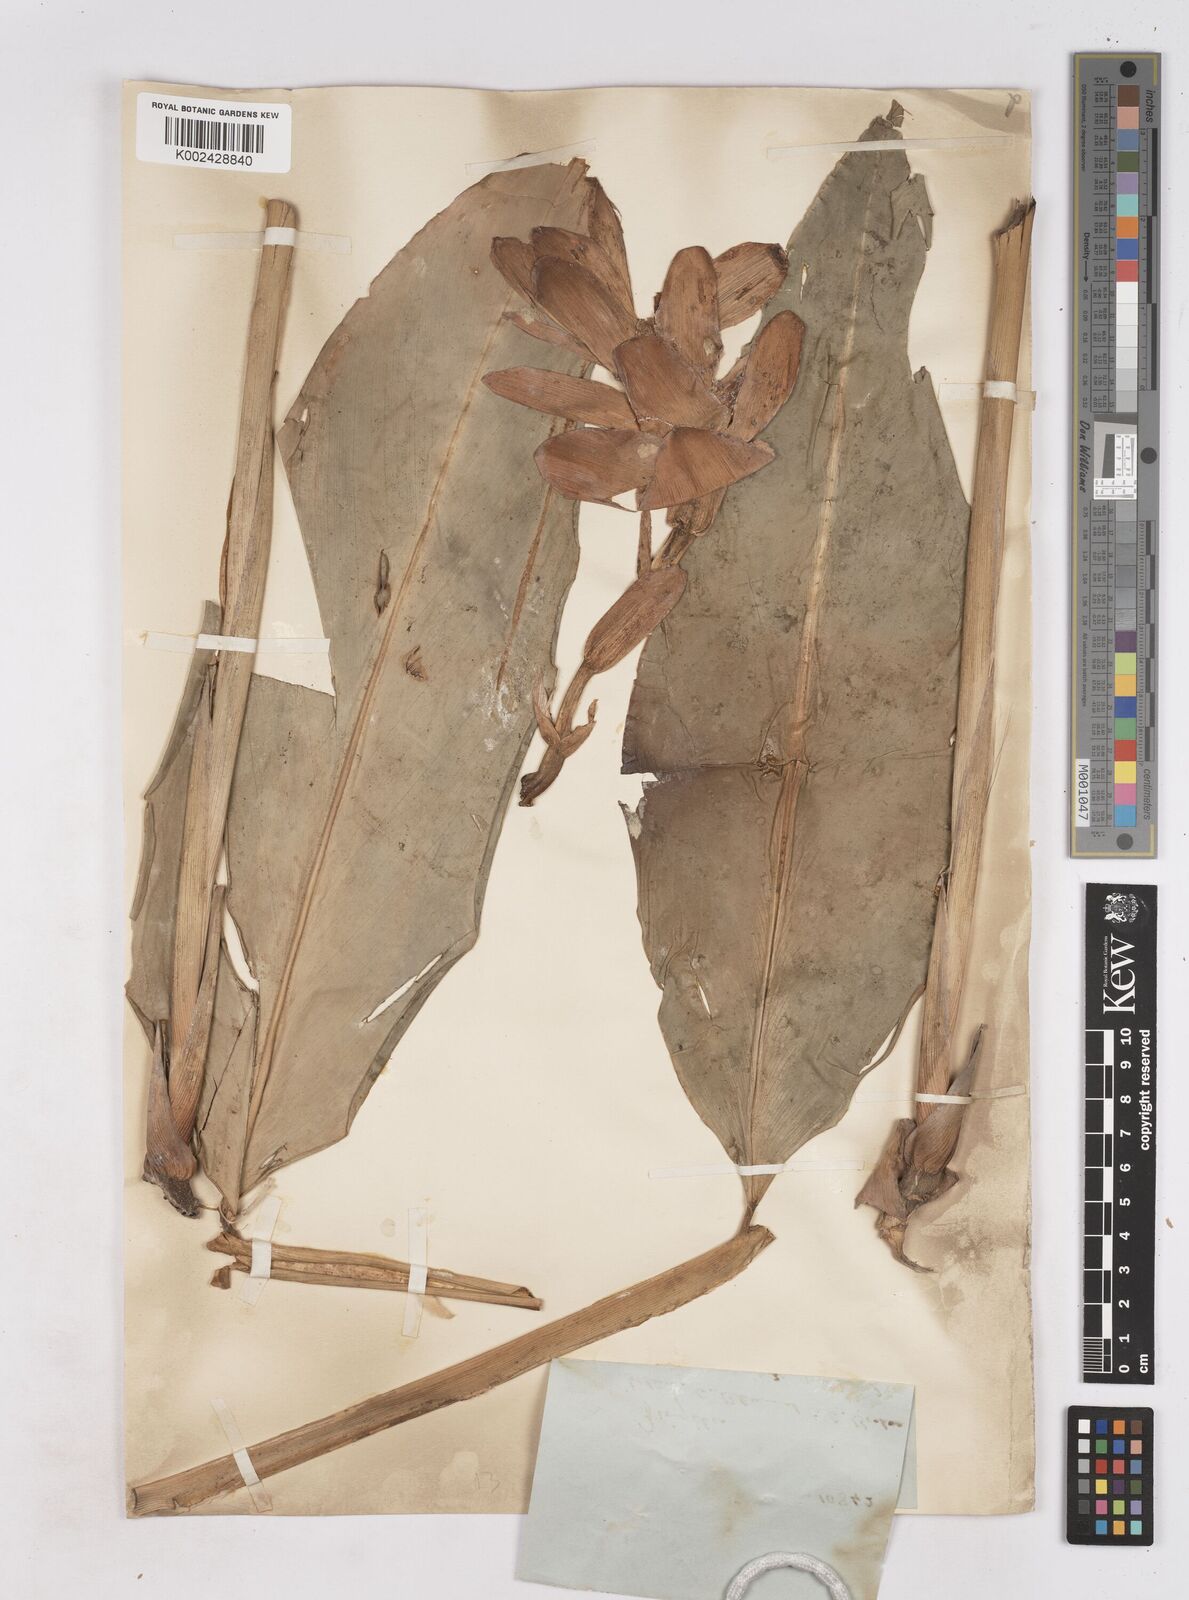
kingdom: Plantae
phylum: Tracheophyta
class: Liliopsida
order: Zingiberales
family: Zingiberaceae
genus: Zingiber
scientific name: Zingiber puberulum
